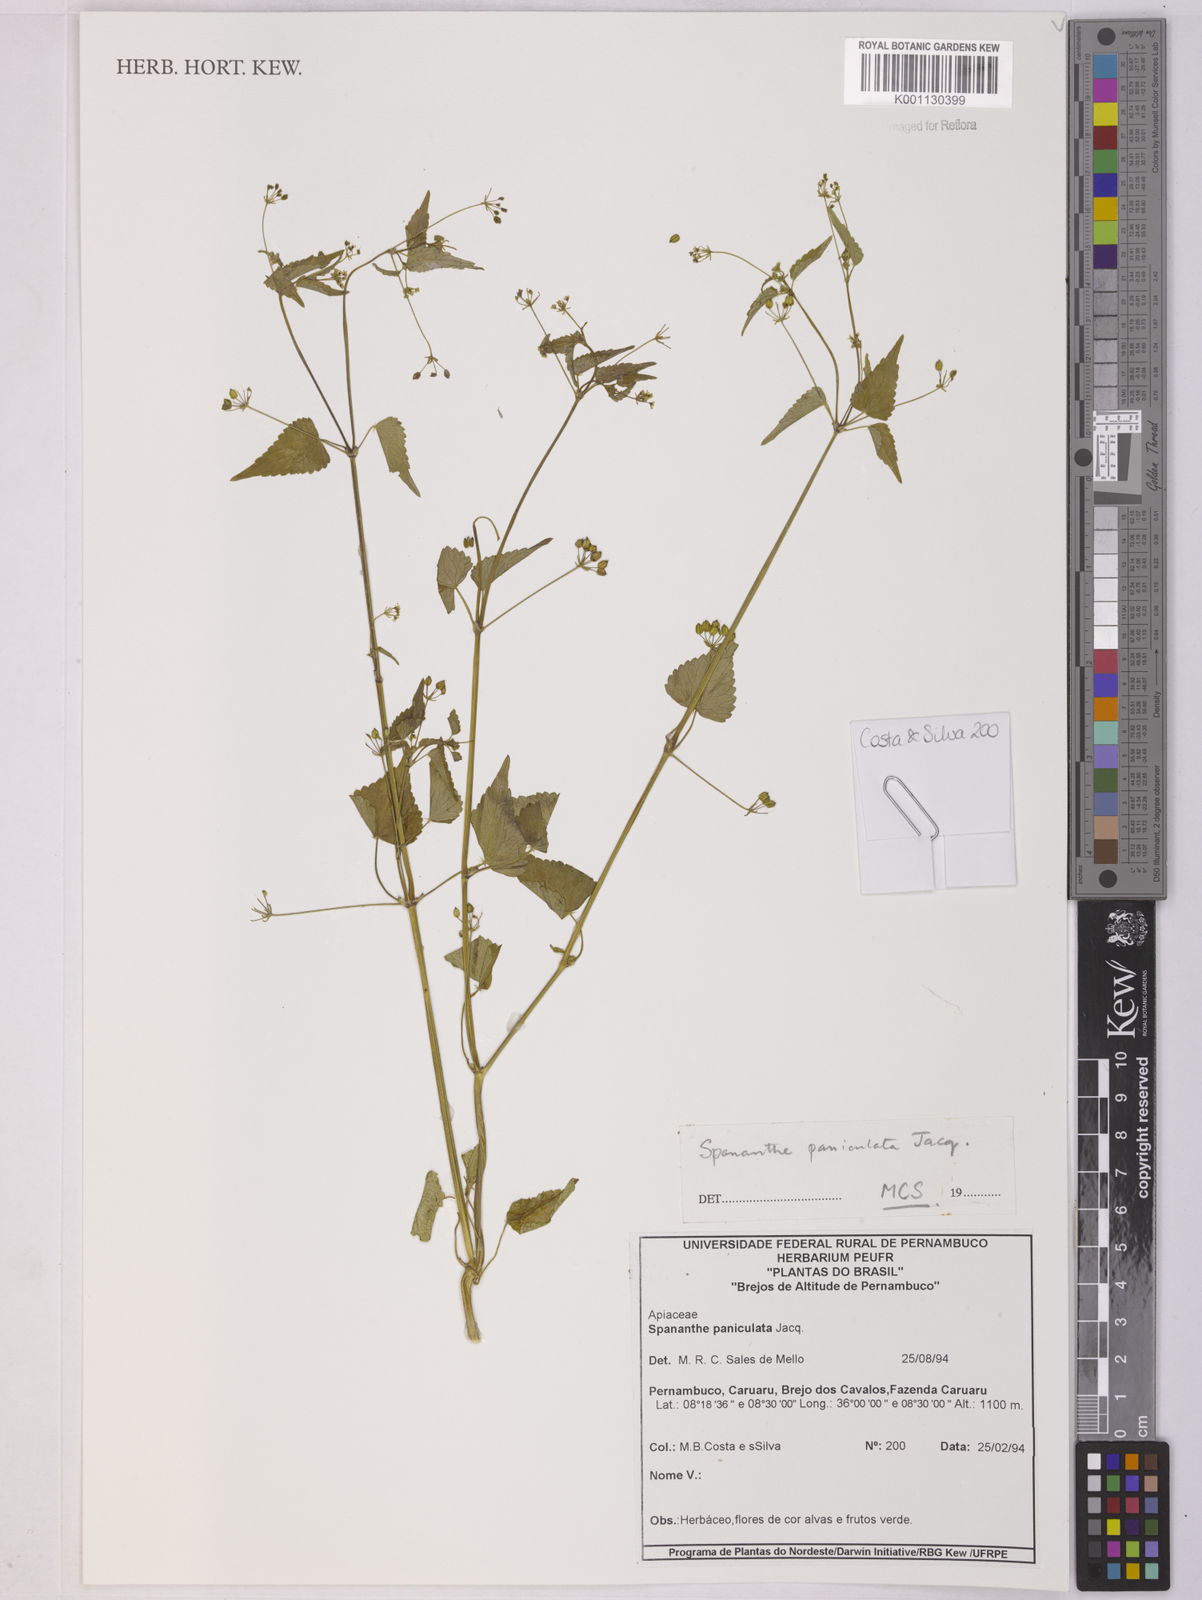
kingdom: Plantae
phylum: Tracheophyta
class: Magnoliopsida
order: Apiales
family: Apiaceae
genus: Spananthe
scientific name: Spananthe paniculata
